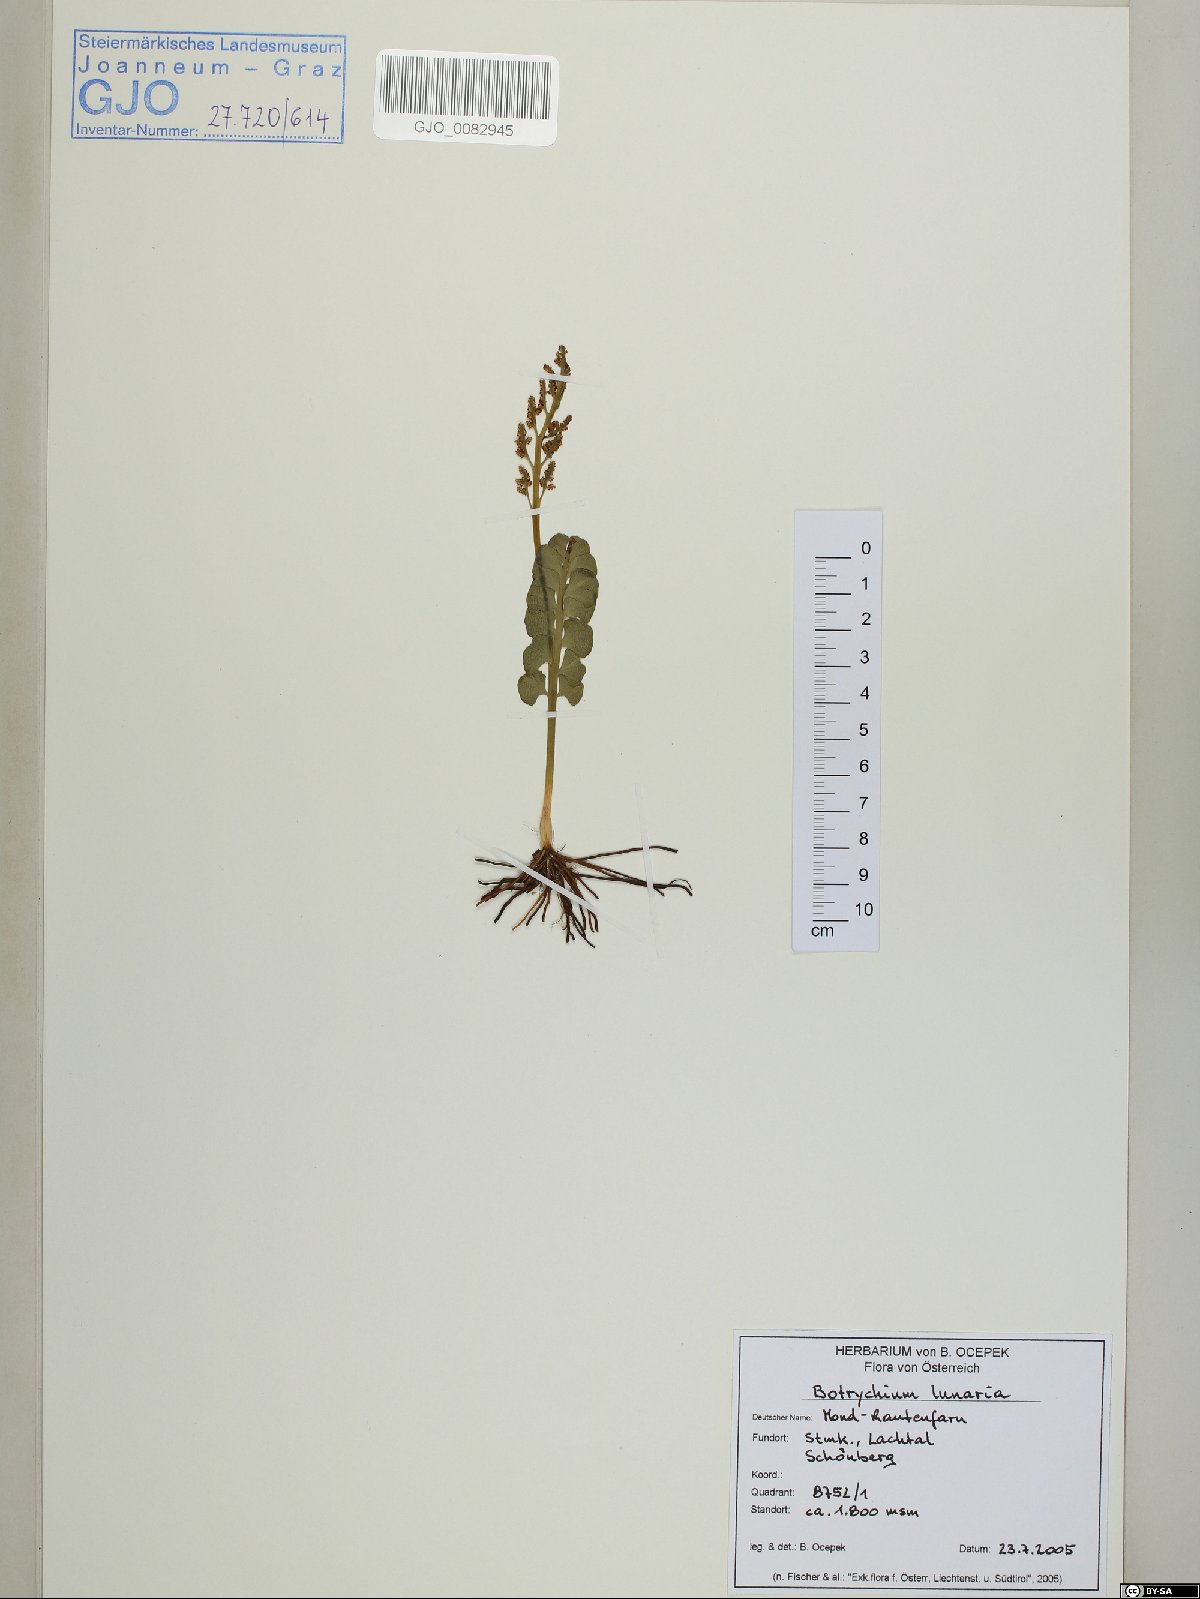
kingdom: Plantae
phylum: Tracheophyta
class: Polypodiopsida
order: Ophioglossales
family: Ophioglossaceae
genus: Botrychium
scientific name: Botrychium lunaria
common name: Moonwort
